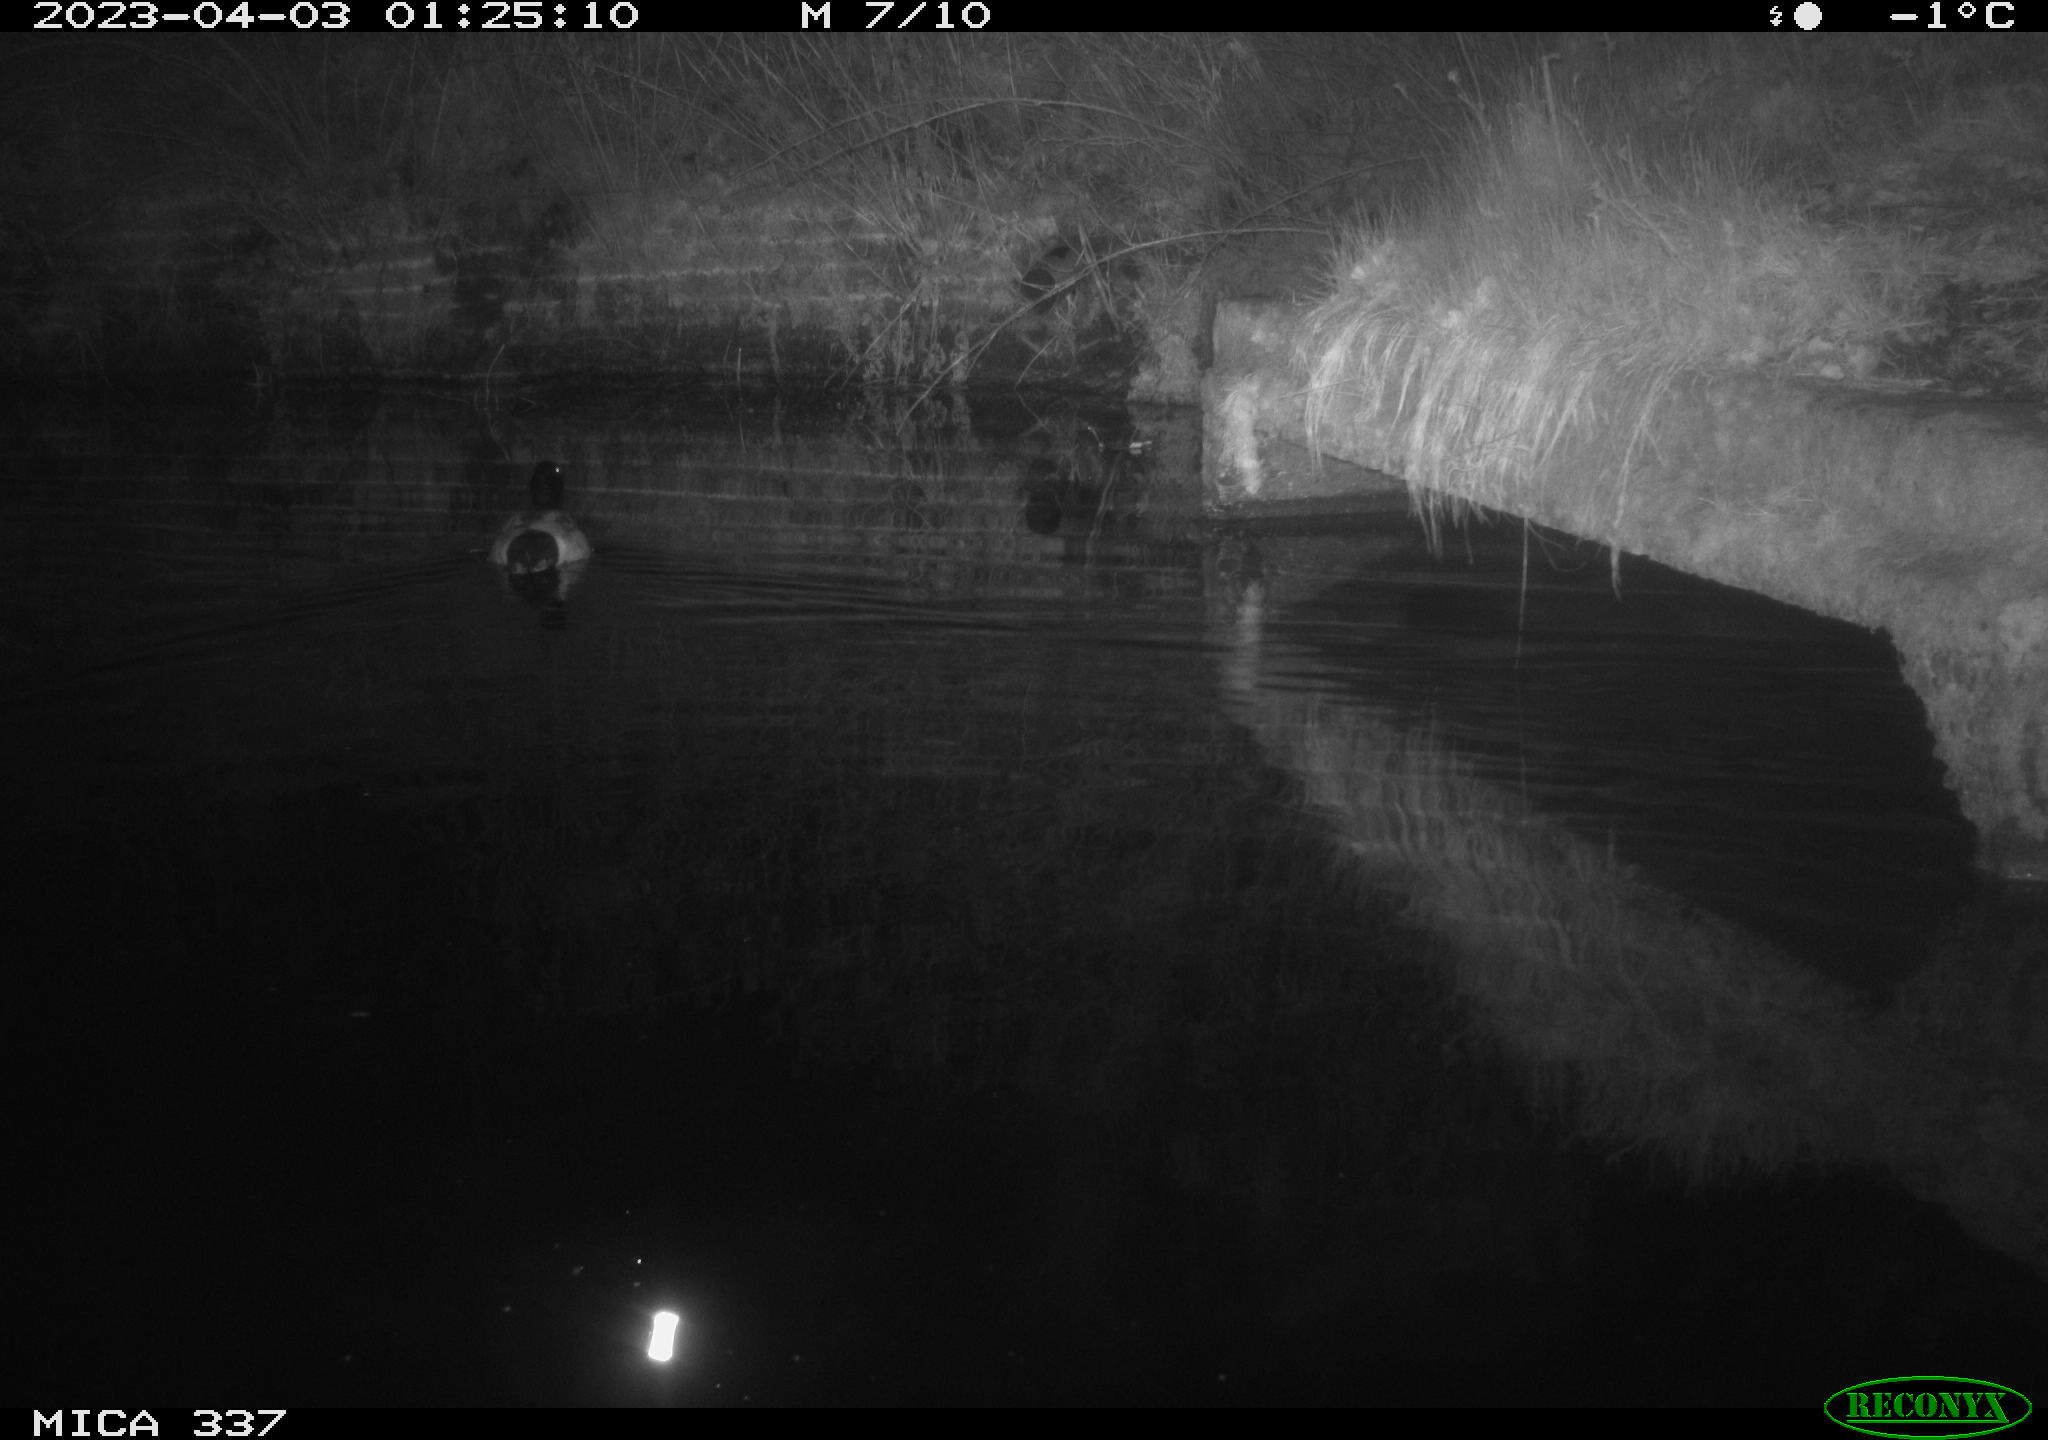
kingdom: Animalia
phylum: Chordata
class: Aves
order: Anseriformes
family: Anatidae
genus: Anas
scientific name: Anas
